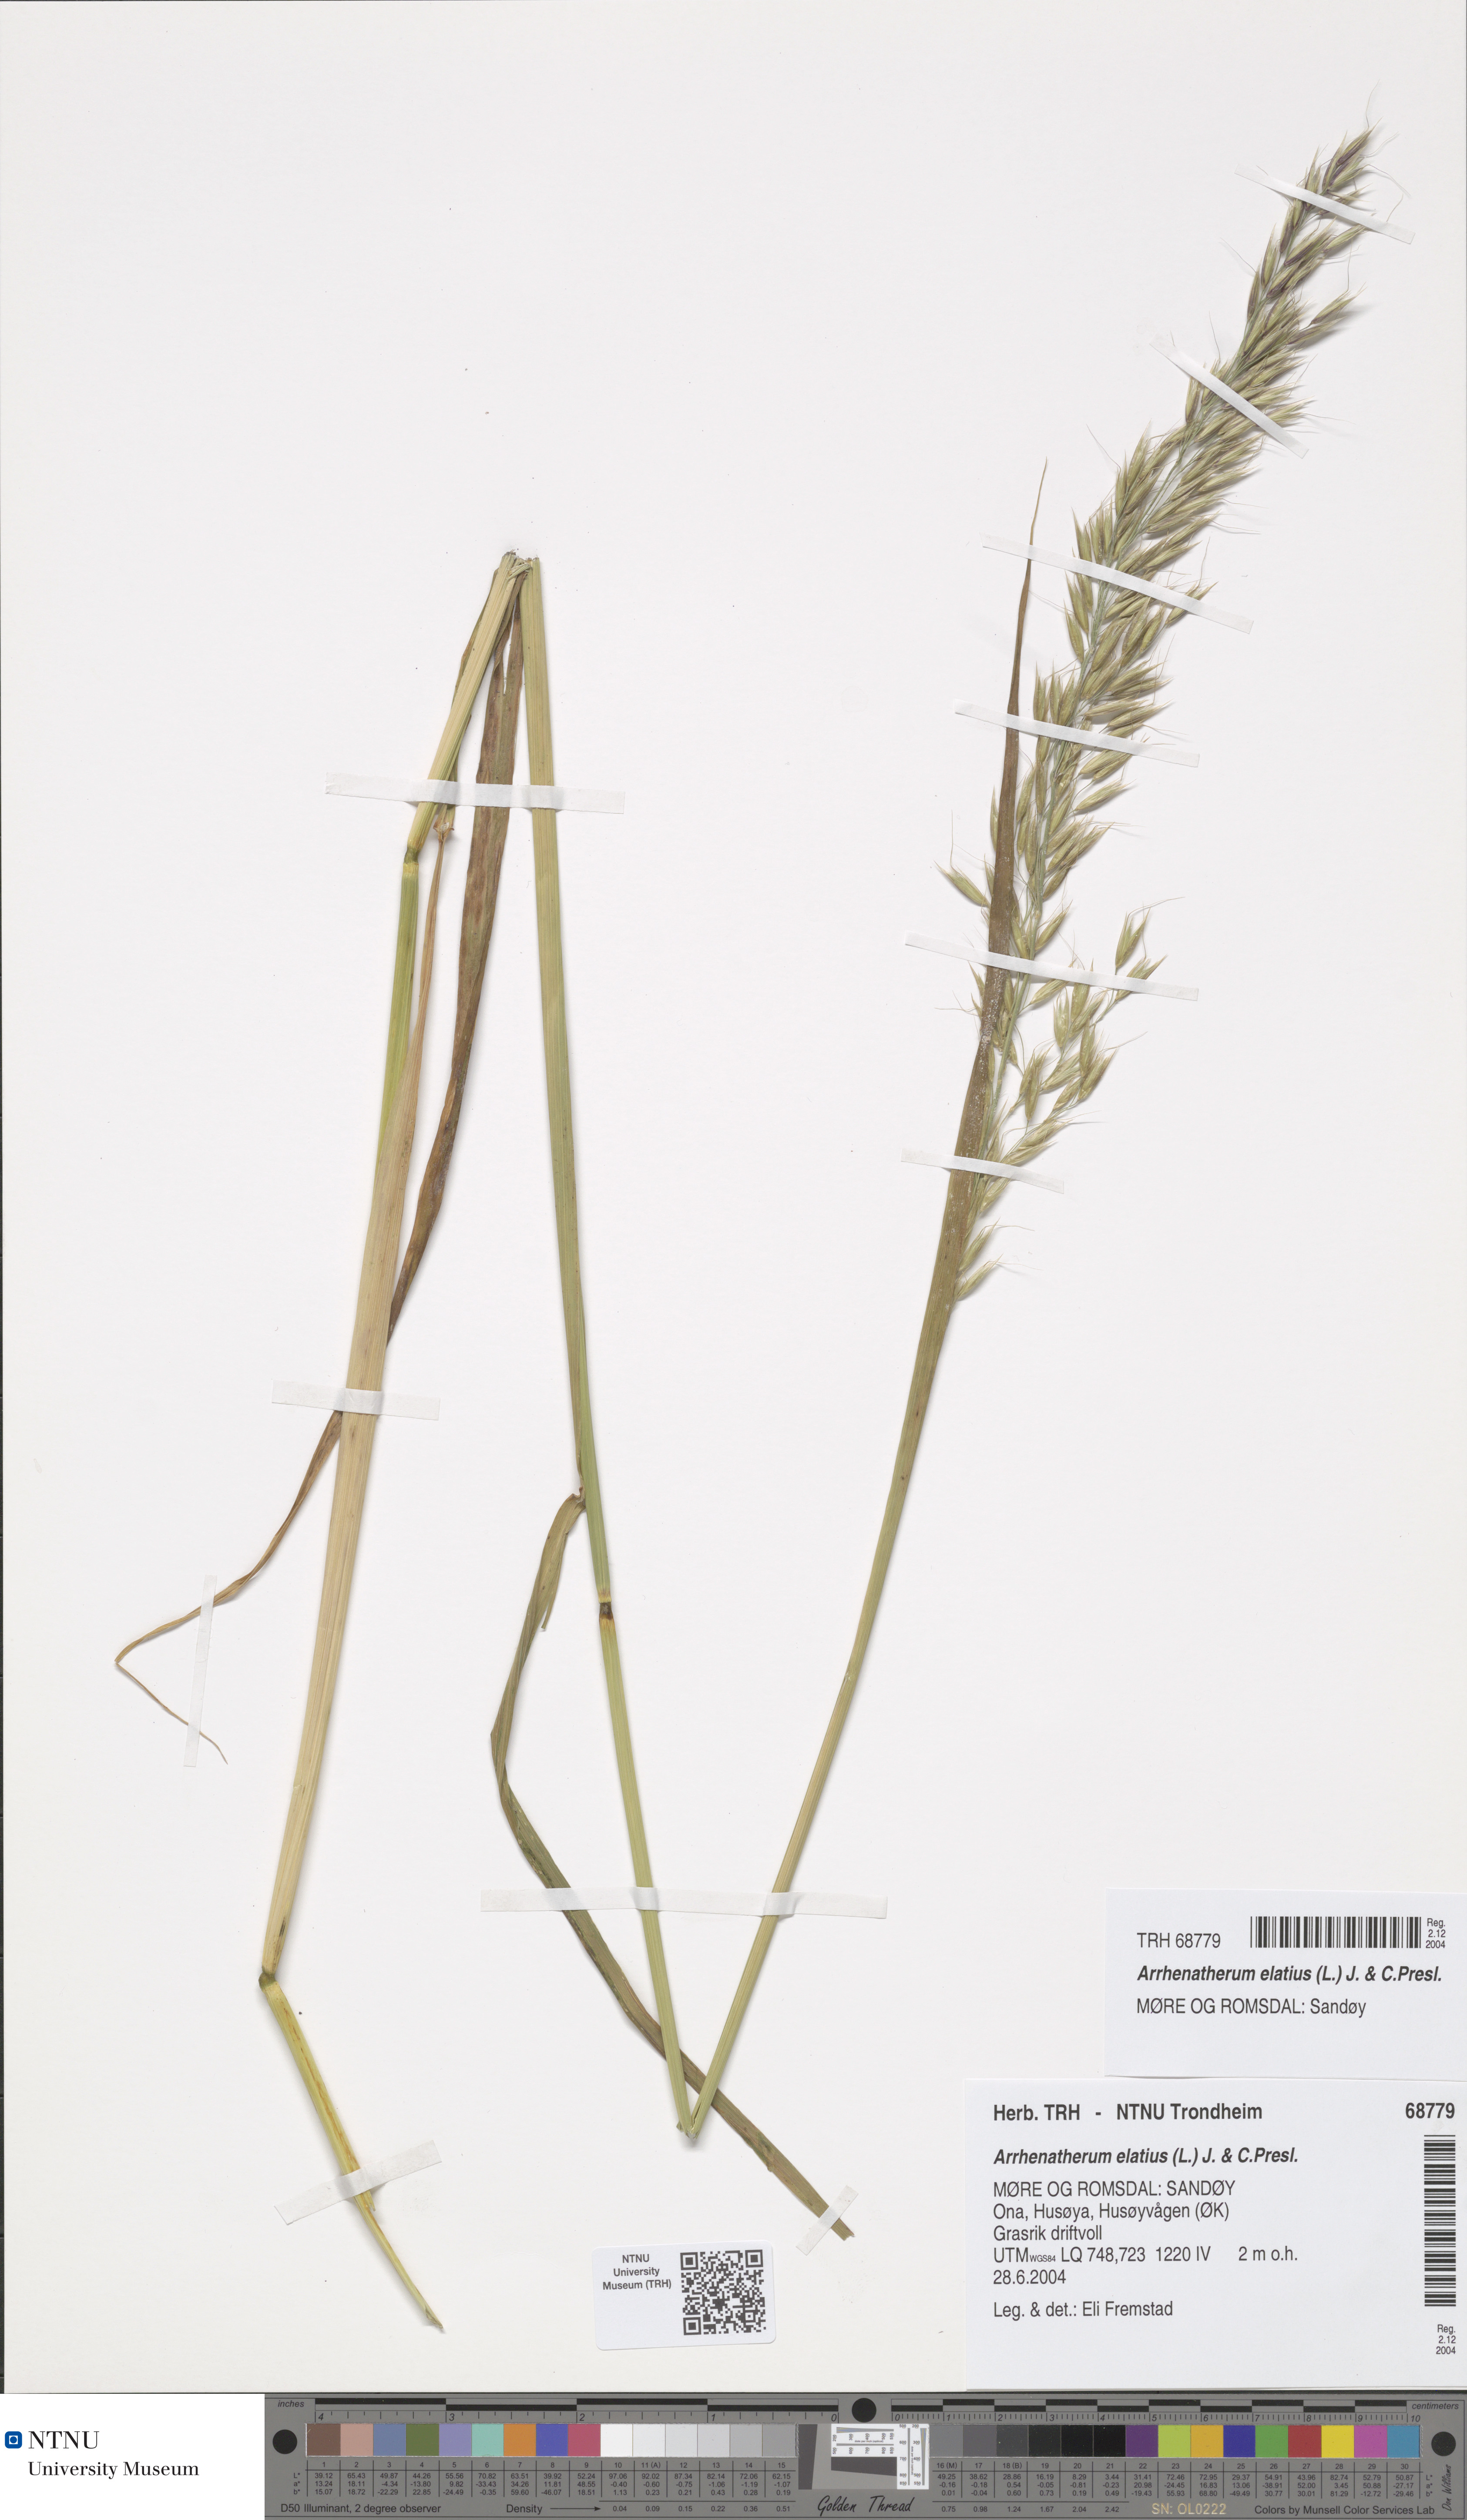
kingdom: Plantae
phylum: Tracheophyta
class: Liliopsida
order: Poales
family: Poaceae
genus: Arrhenatherum
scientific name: Arrhenatherum elatius
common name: Tall oatgrass
